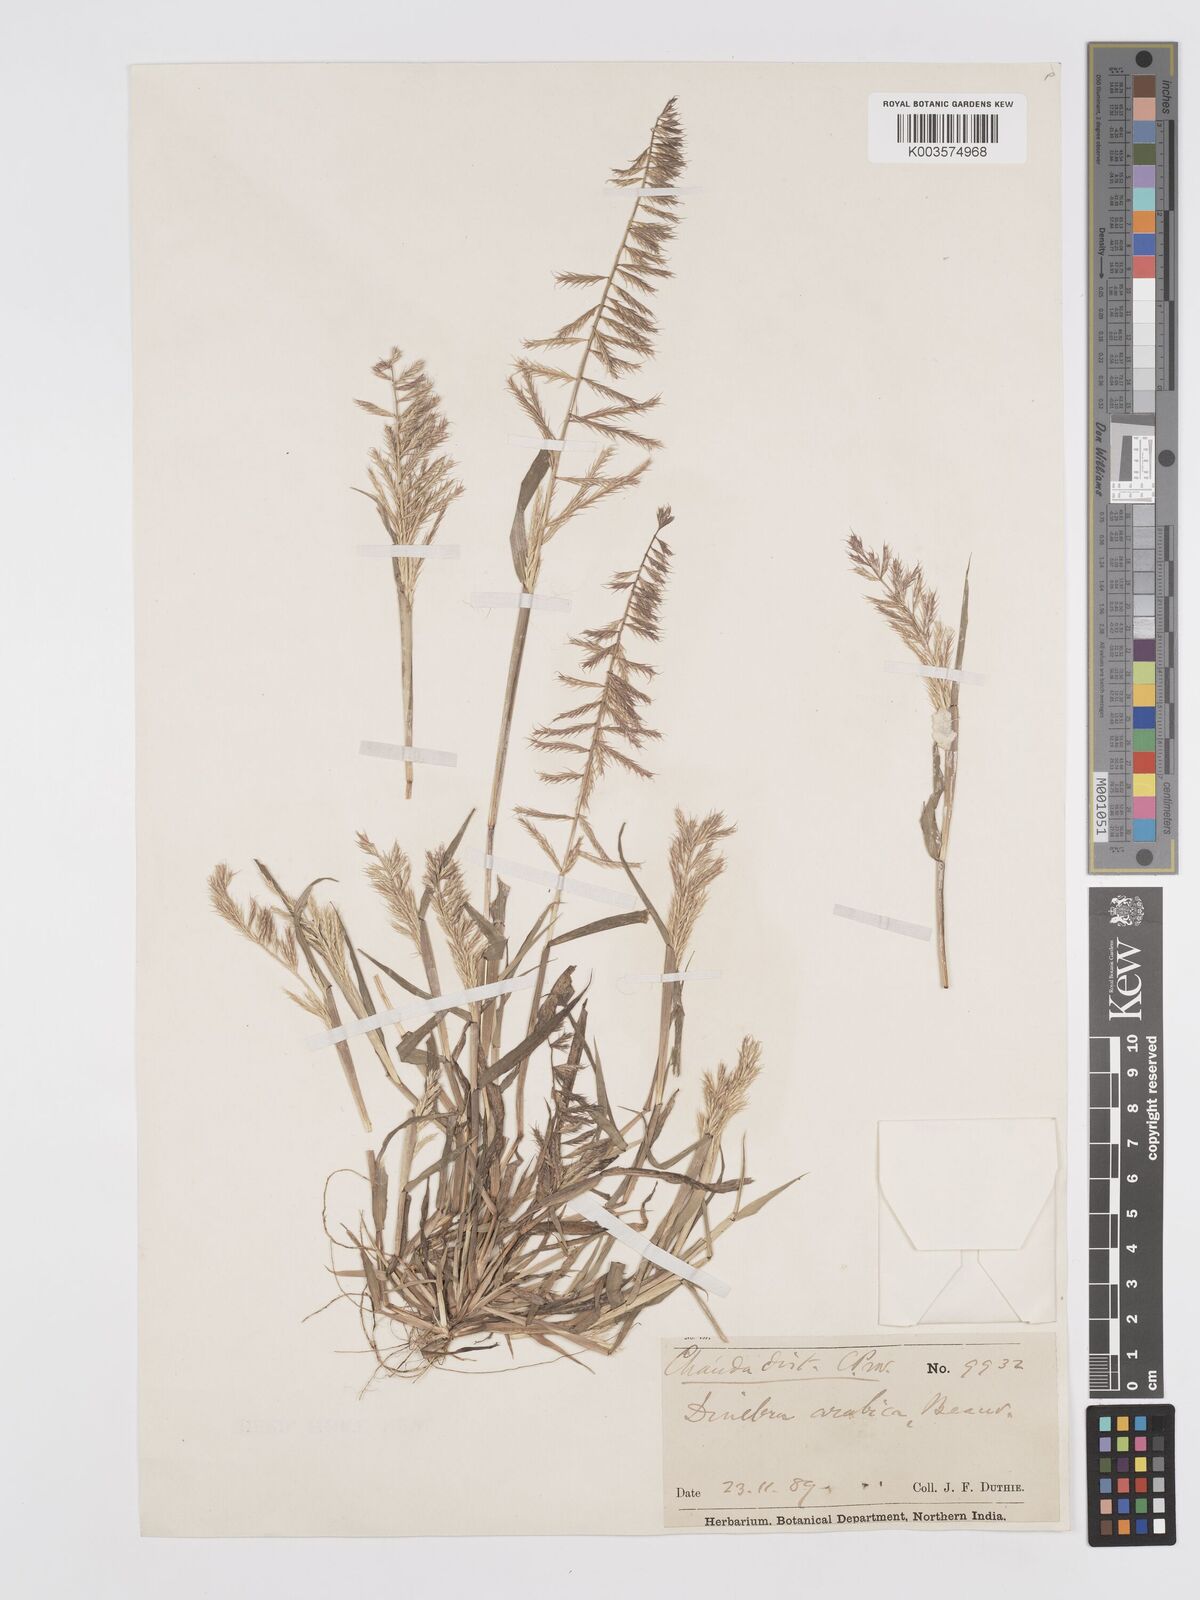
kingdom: Plantae
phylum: Tracheophyta
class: Liliopsida
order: Poales
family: Poaceae
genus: Dinebra
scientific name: Dinebra retroflexa
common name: Viper grass
